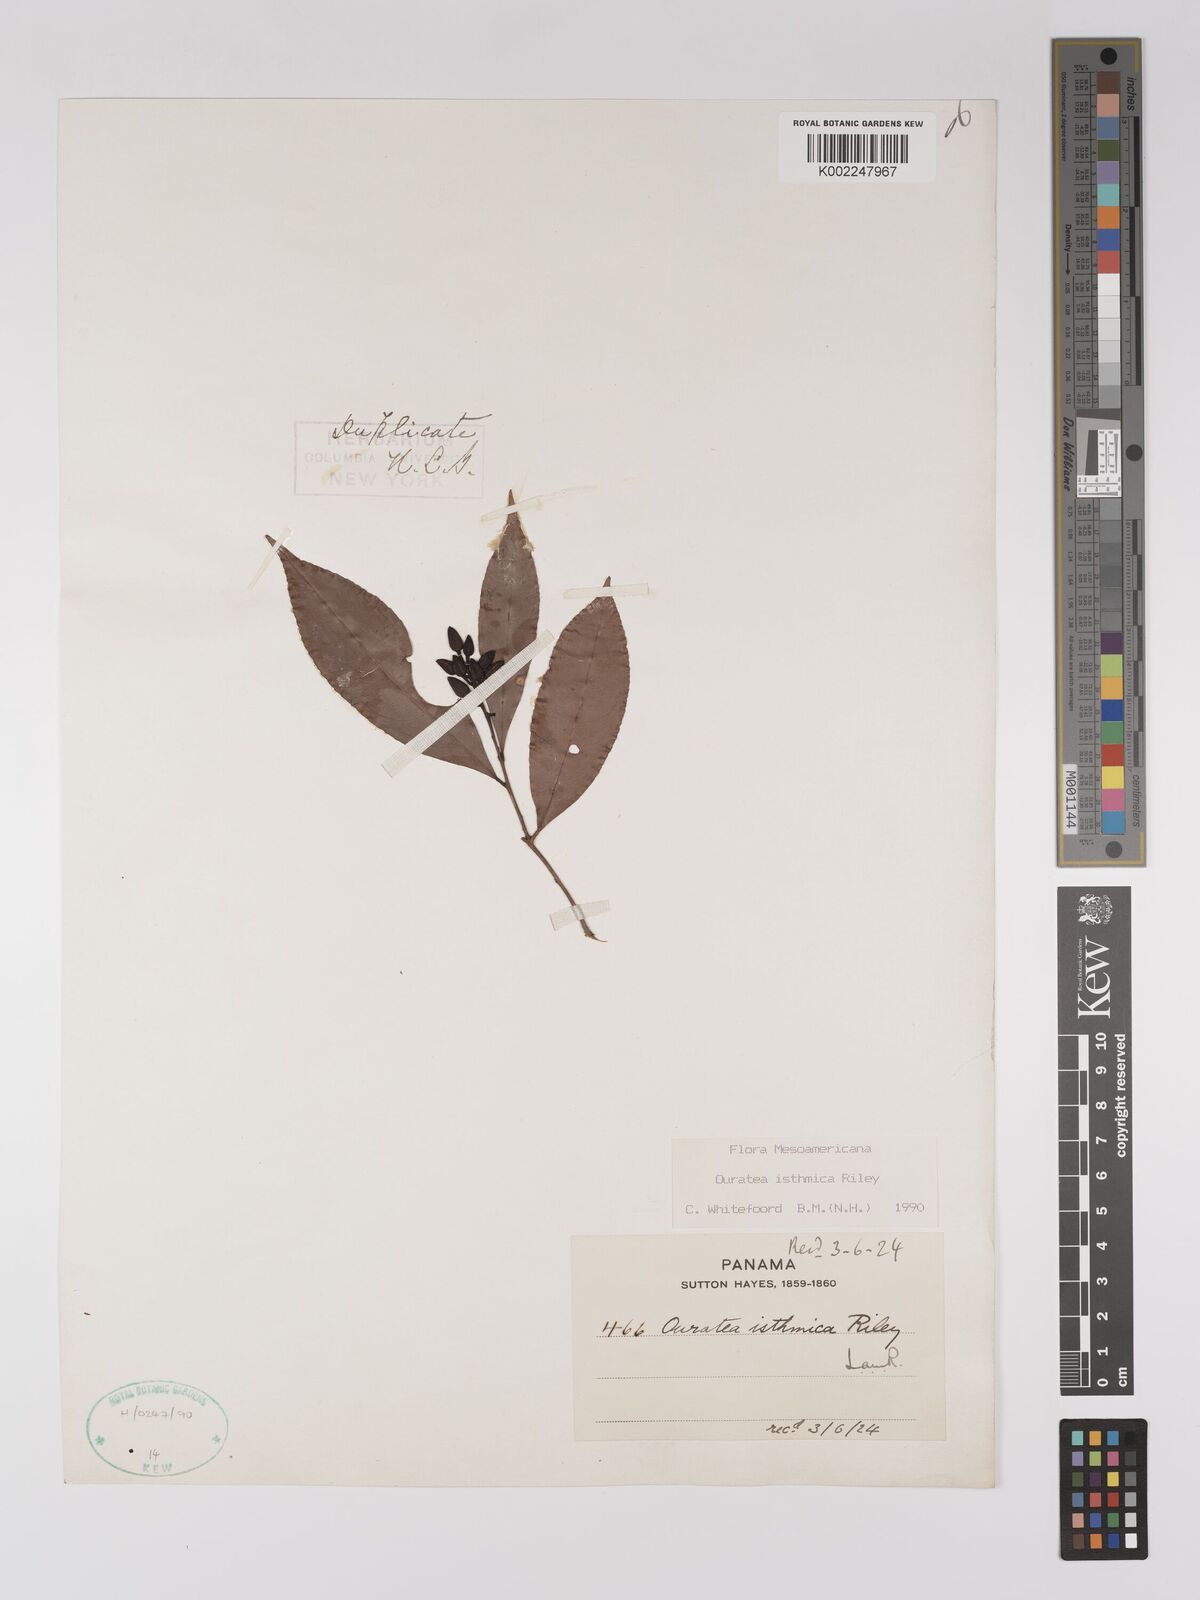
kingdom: Plantae
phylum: Tracheophyta
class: Magnoliopsida
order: Malpighiales
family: Ochnaceae
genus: Ouratea
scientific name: Ouratea lucens
